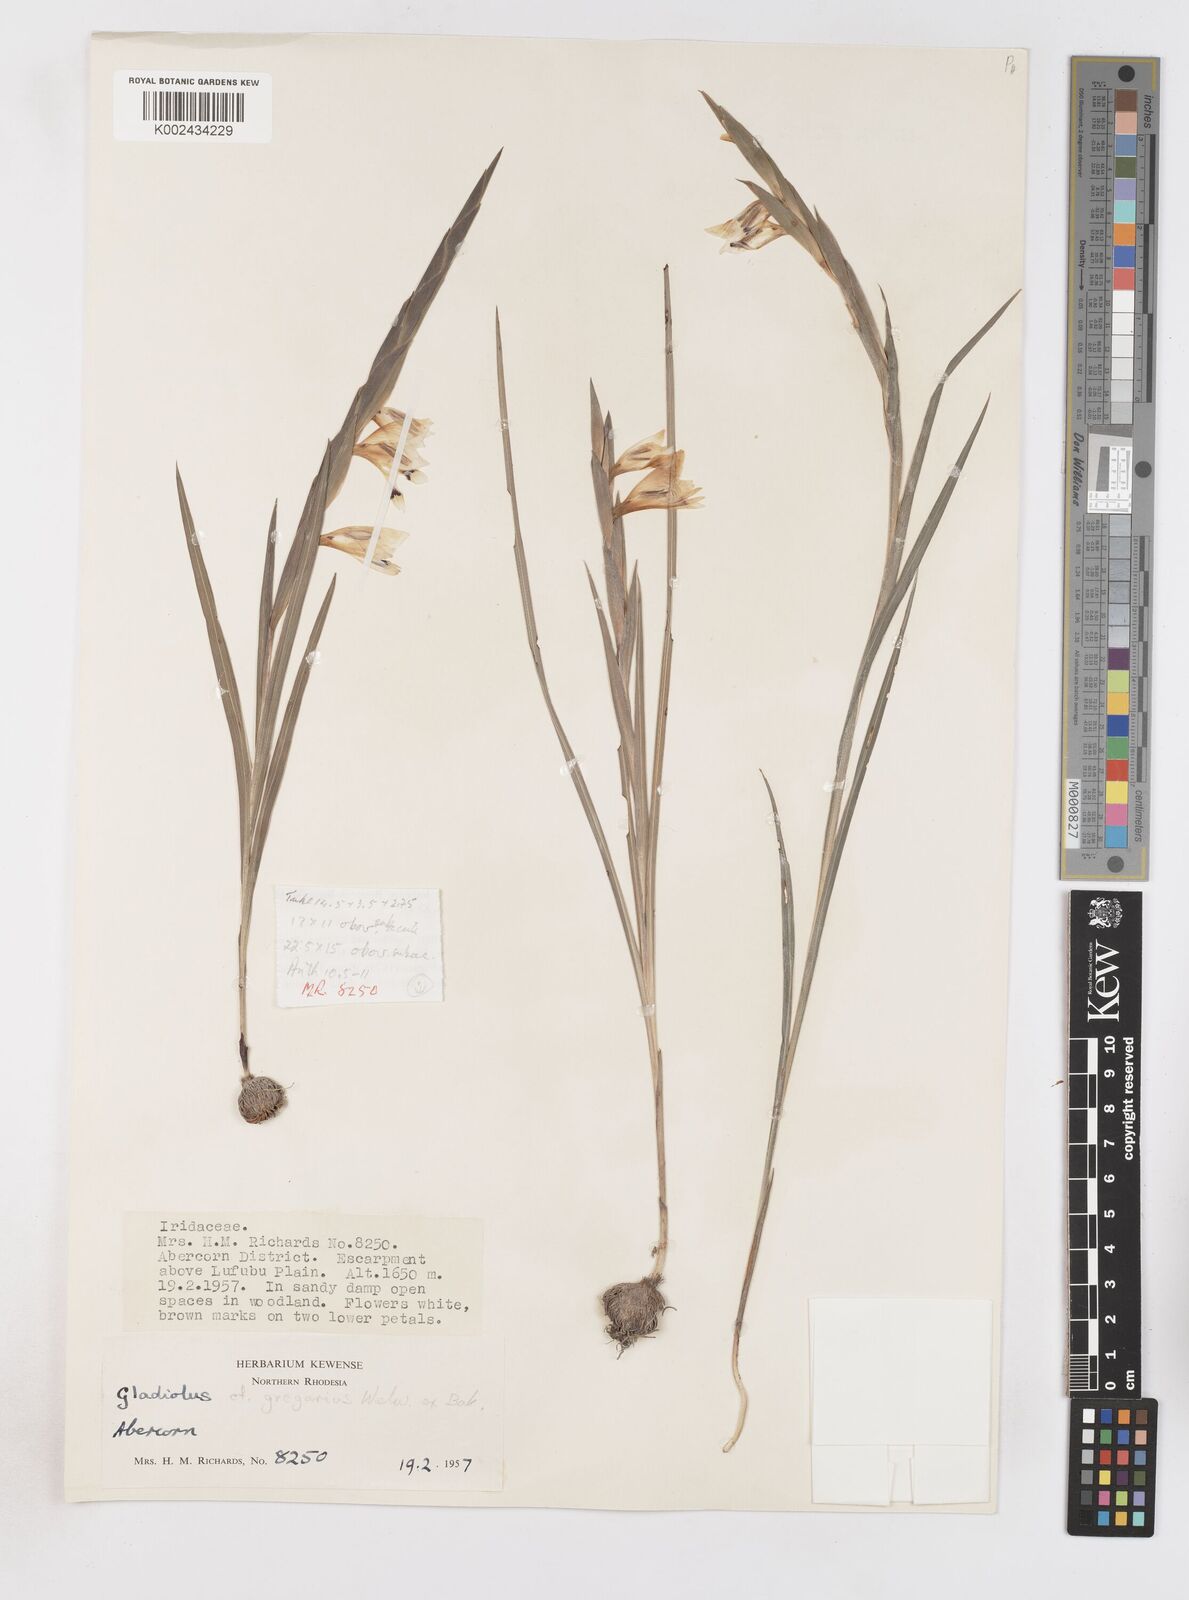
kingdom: Plantae
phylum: Tracheophyta
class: Liliopsida
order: Asparagales
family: Iridaceae
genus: Gladiolus
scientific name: Gladiolus gregarius
